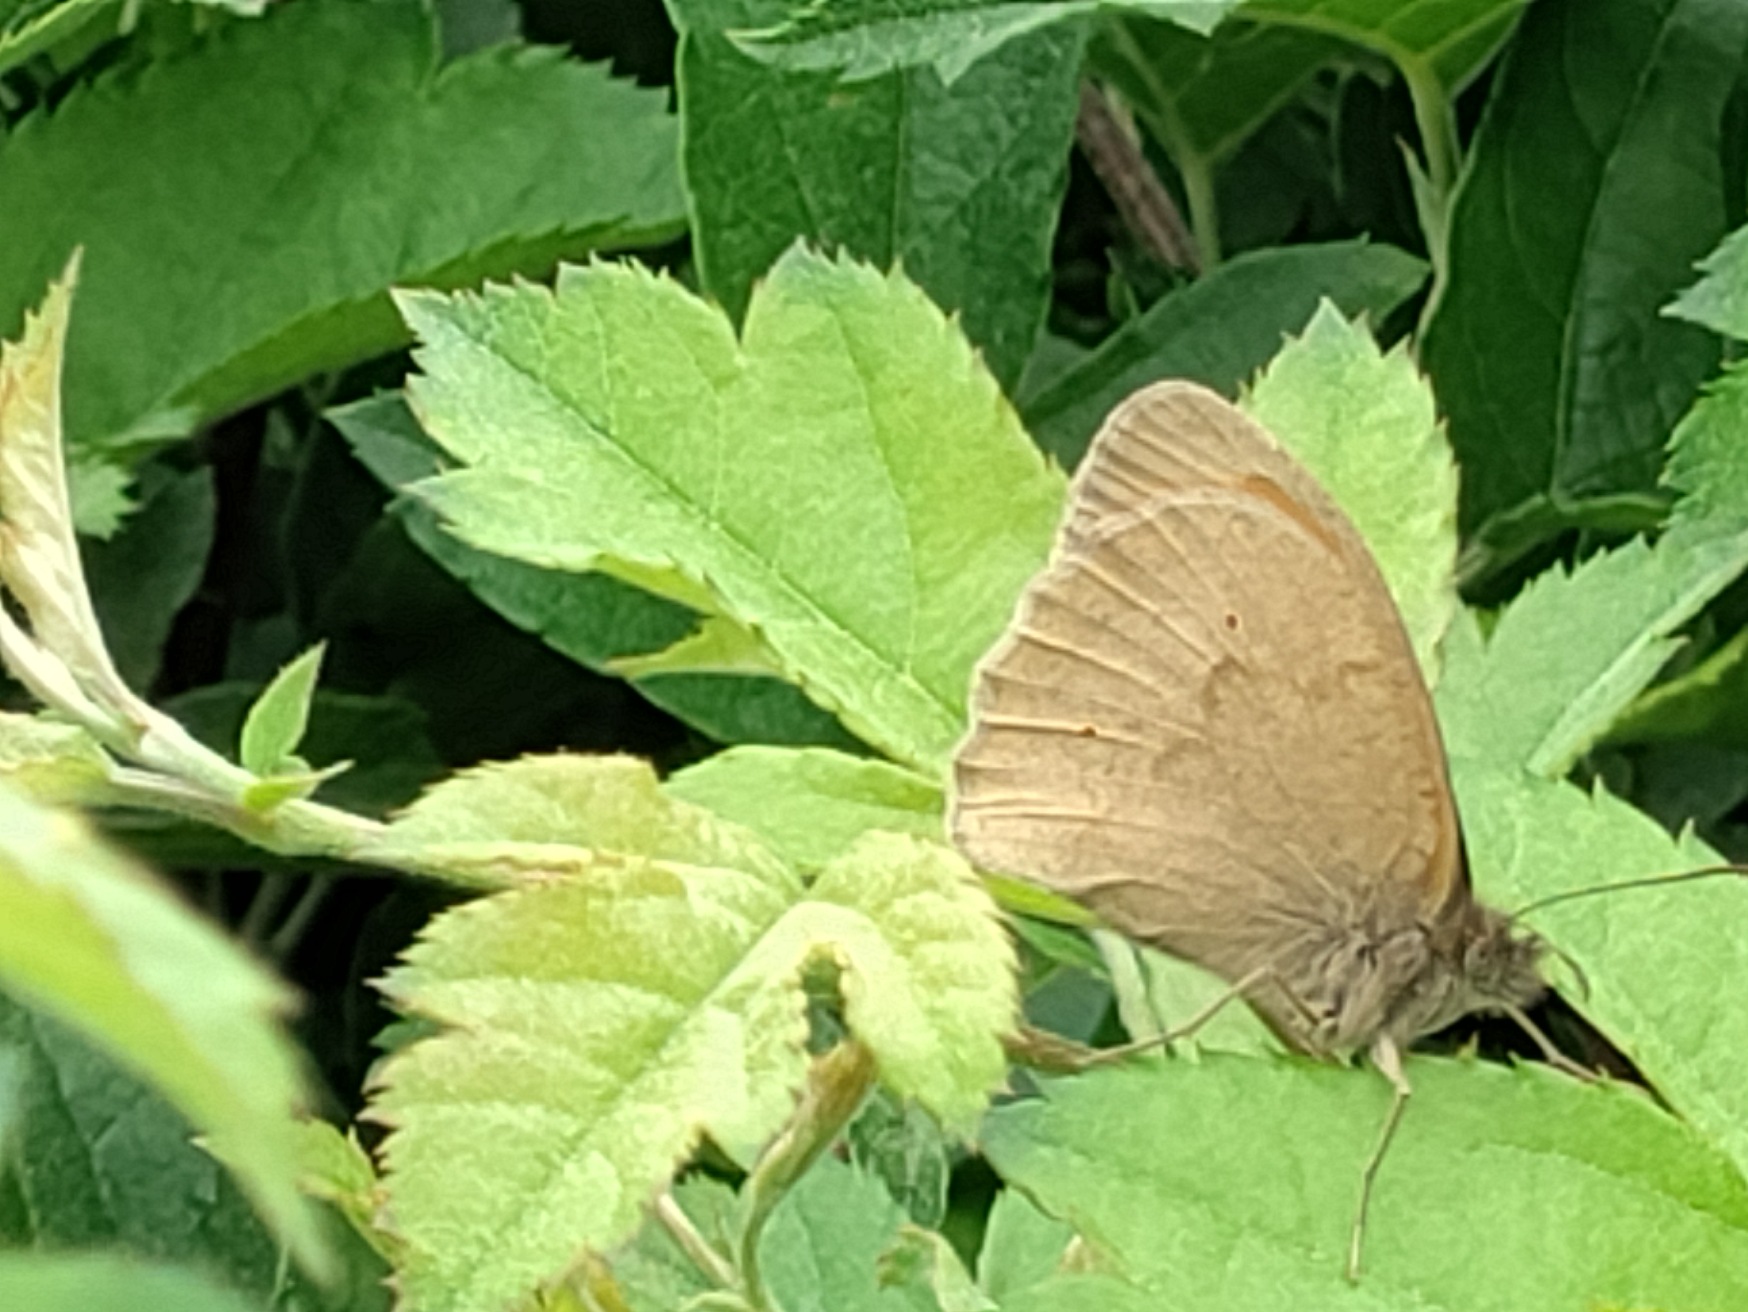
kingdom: Animalia
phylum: Arthropoda
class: Insecta
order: Lepidoptera
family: Nymphalidae
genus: Maniola
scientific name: Maniola jurtina
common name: Græsrandøje
